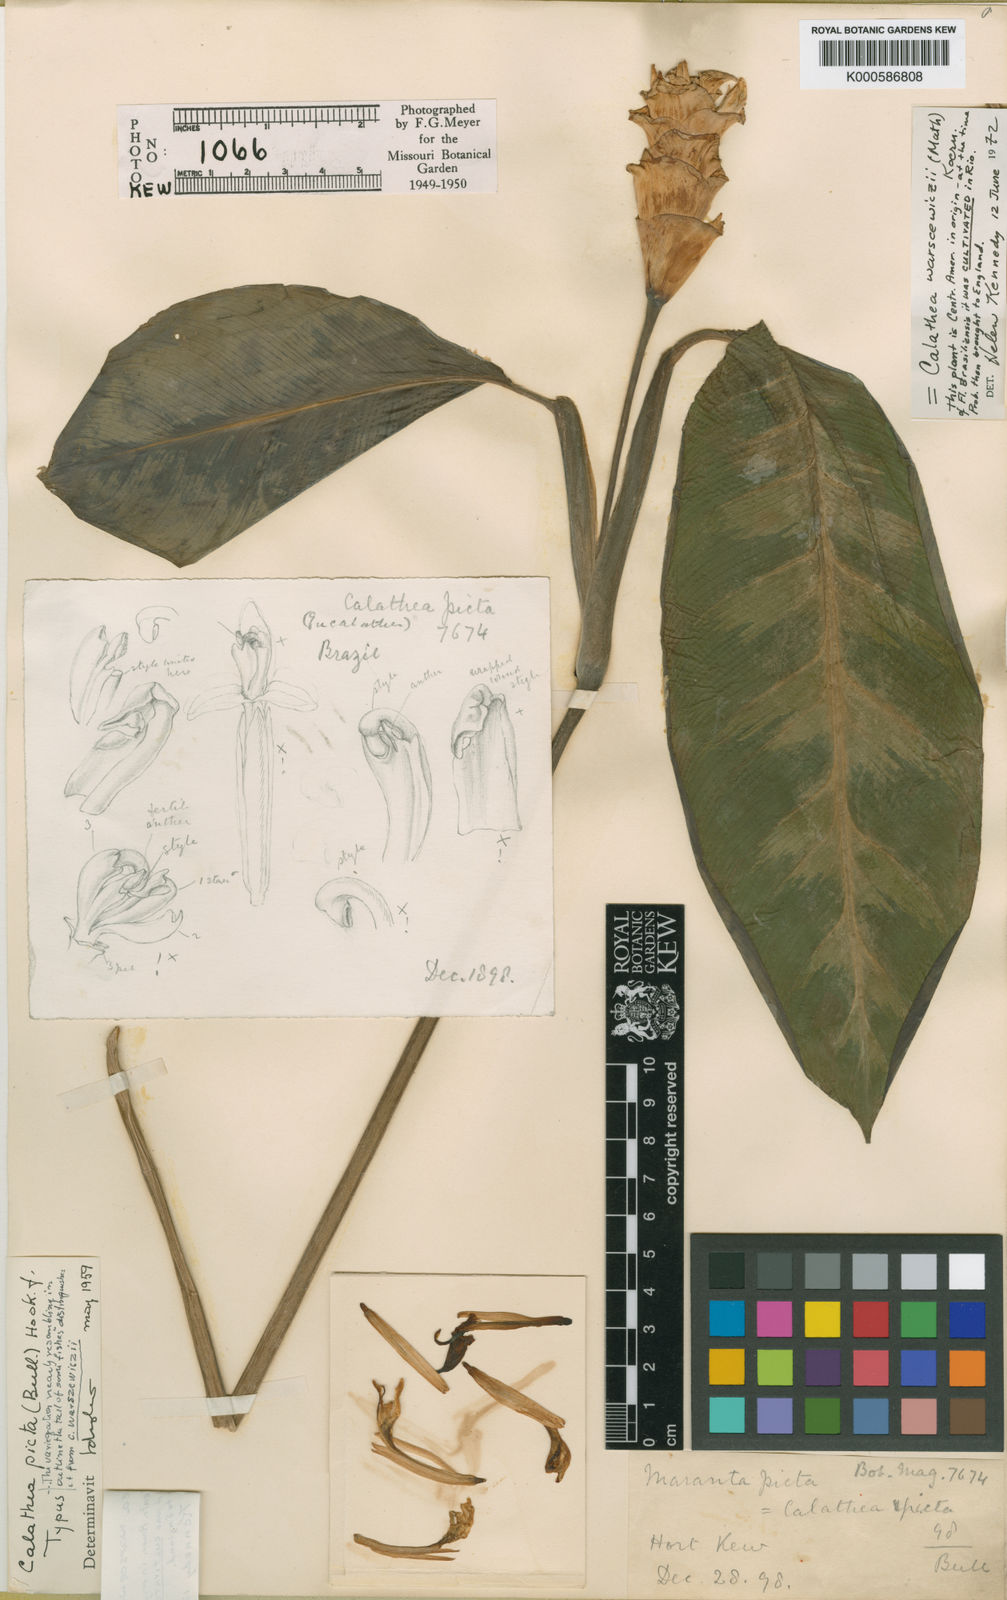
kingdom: Plantae
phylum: Tracheophyta
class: Liliopsida
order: Zingiberales
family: Marantaceae
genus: Calathea
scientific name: Calathea
